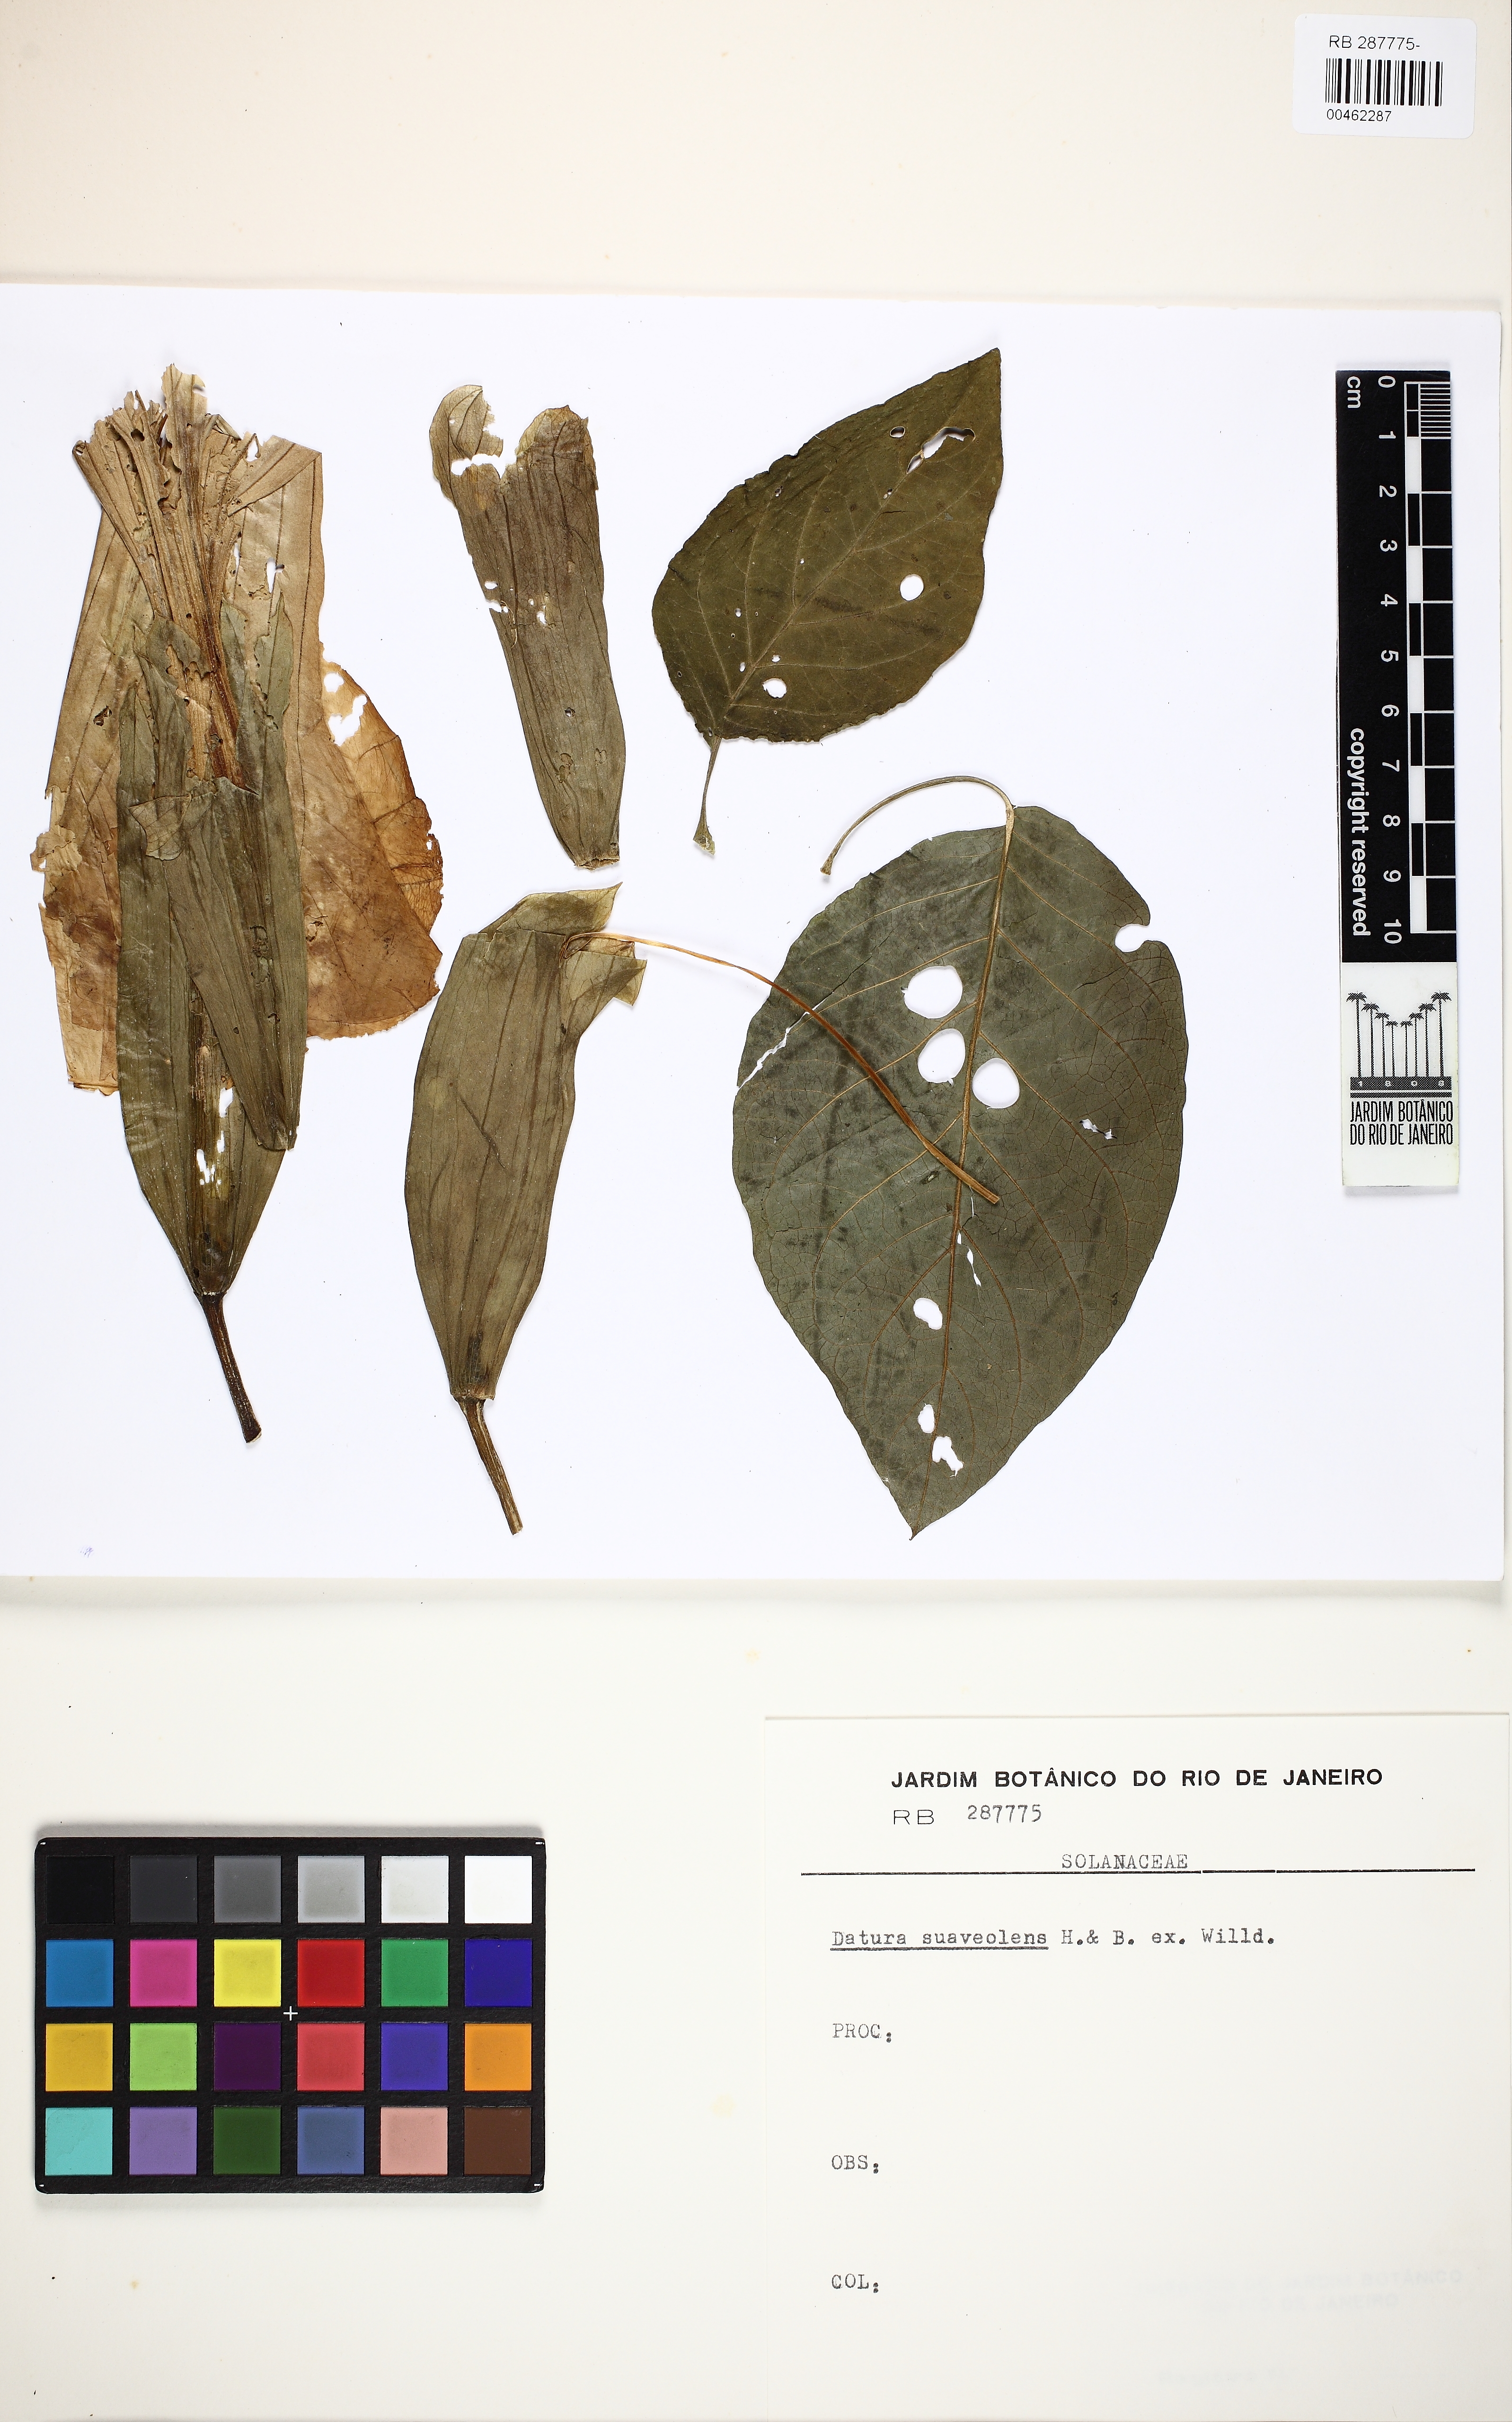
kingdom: Plantae
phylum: Tracheophyta
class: Magnoliopsida
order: Solanales
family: Solanaceae
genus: Brugmansia
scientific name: Brugmansia suaveolens
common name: Angel's tears
